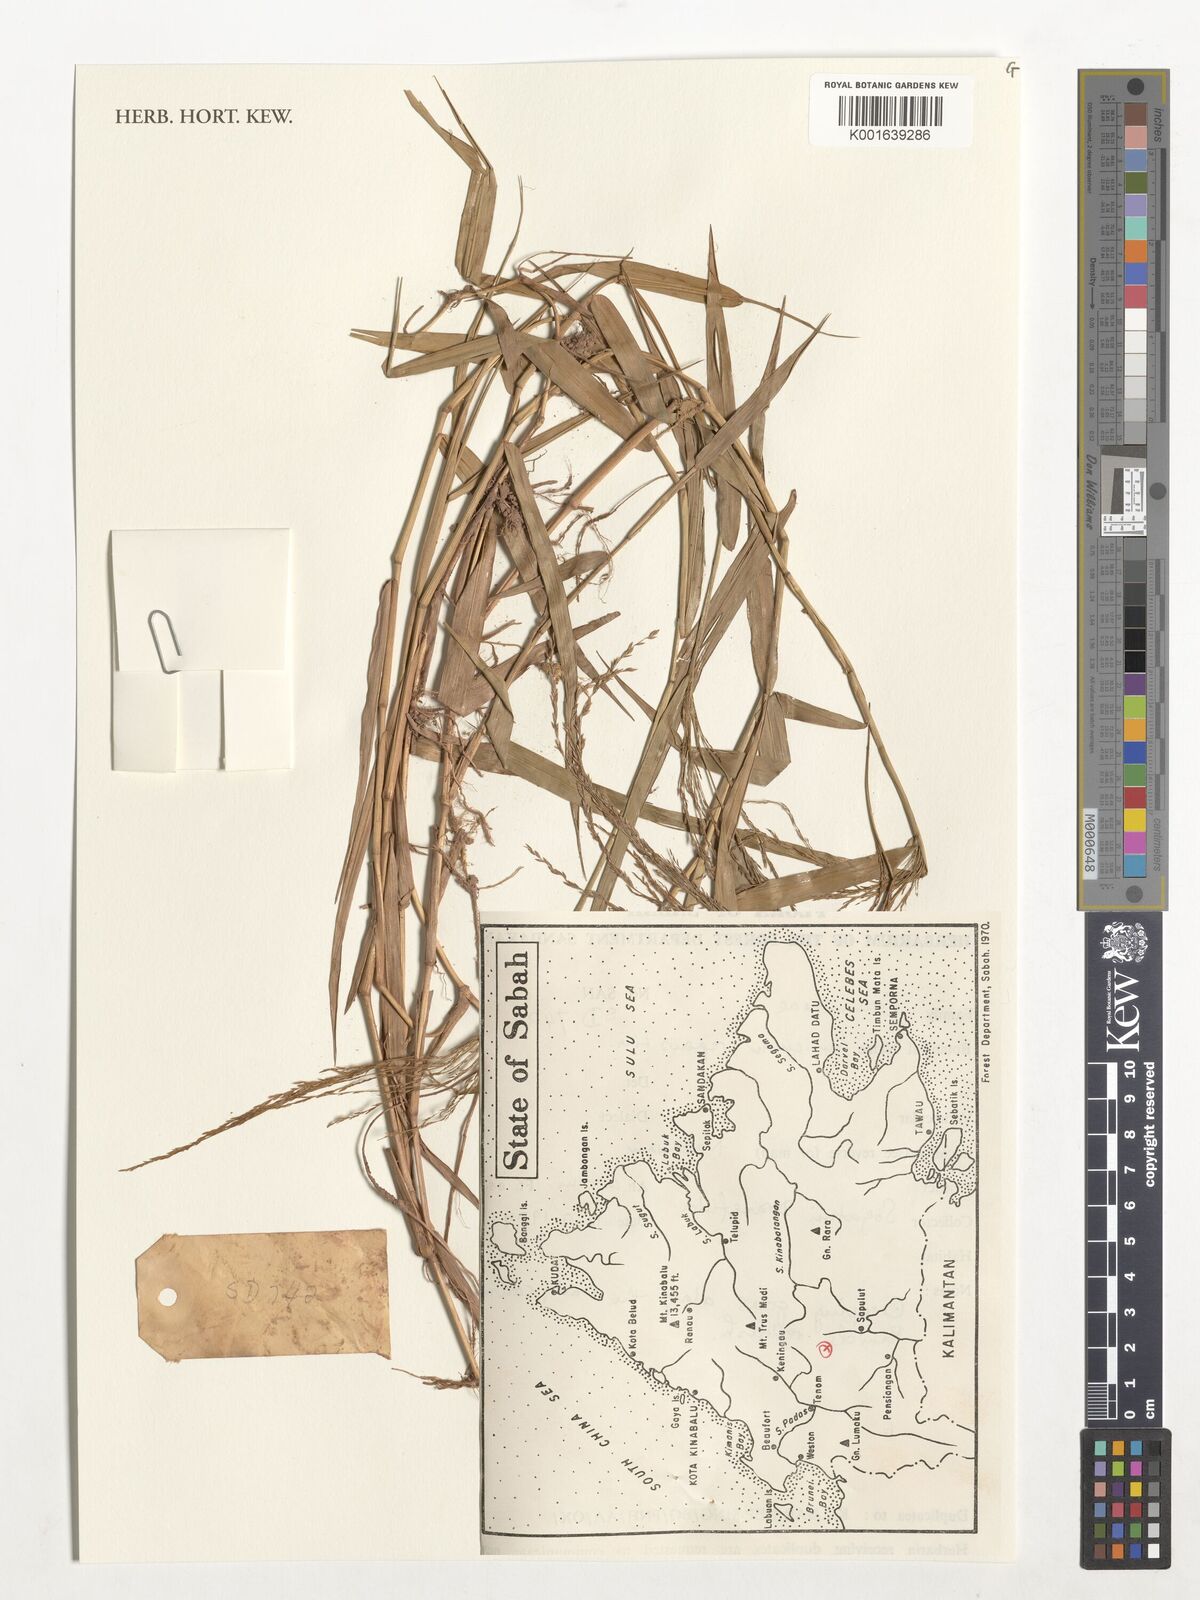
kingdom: Plantae
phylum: Tracheophyta
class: Liliopsida
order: Poales
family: Poaceae
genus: Panicum
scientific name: Panicum repens
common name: Torpedo grass
